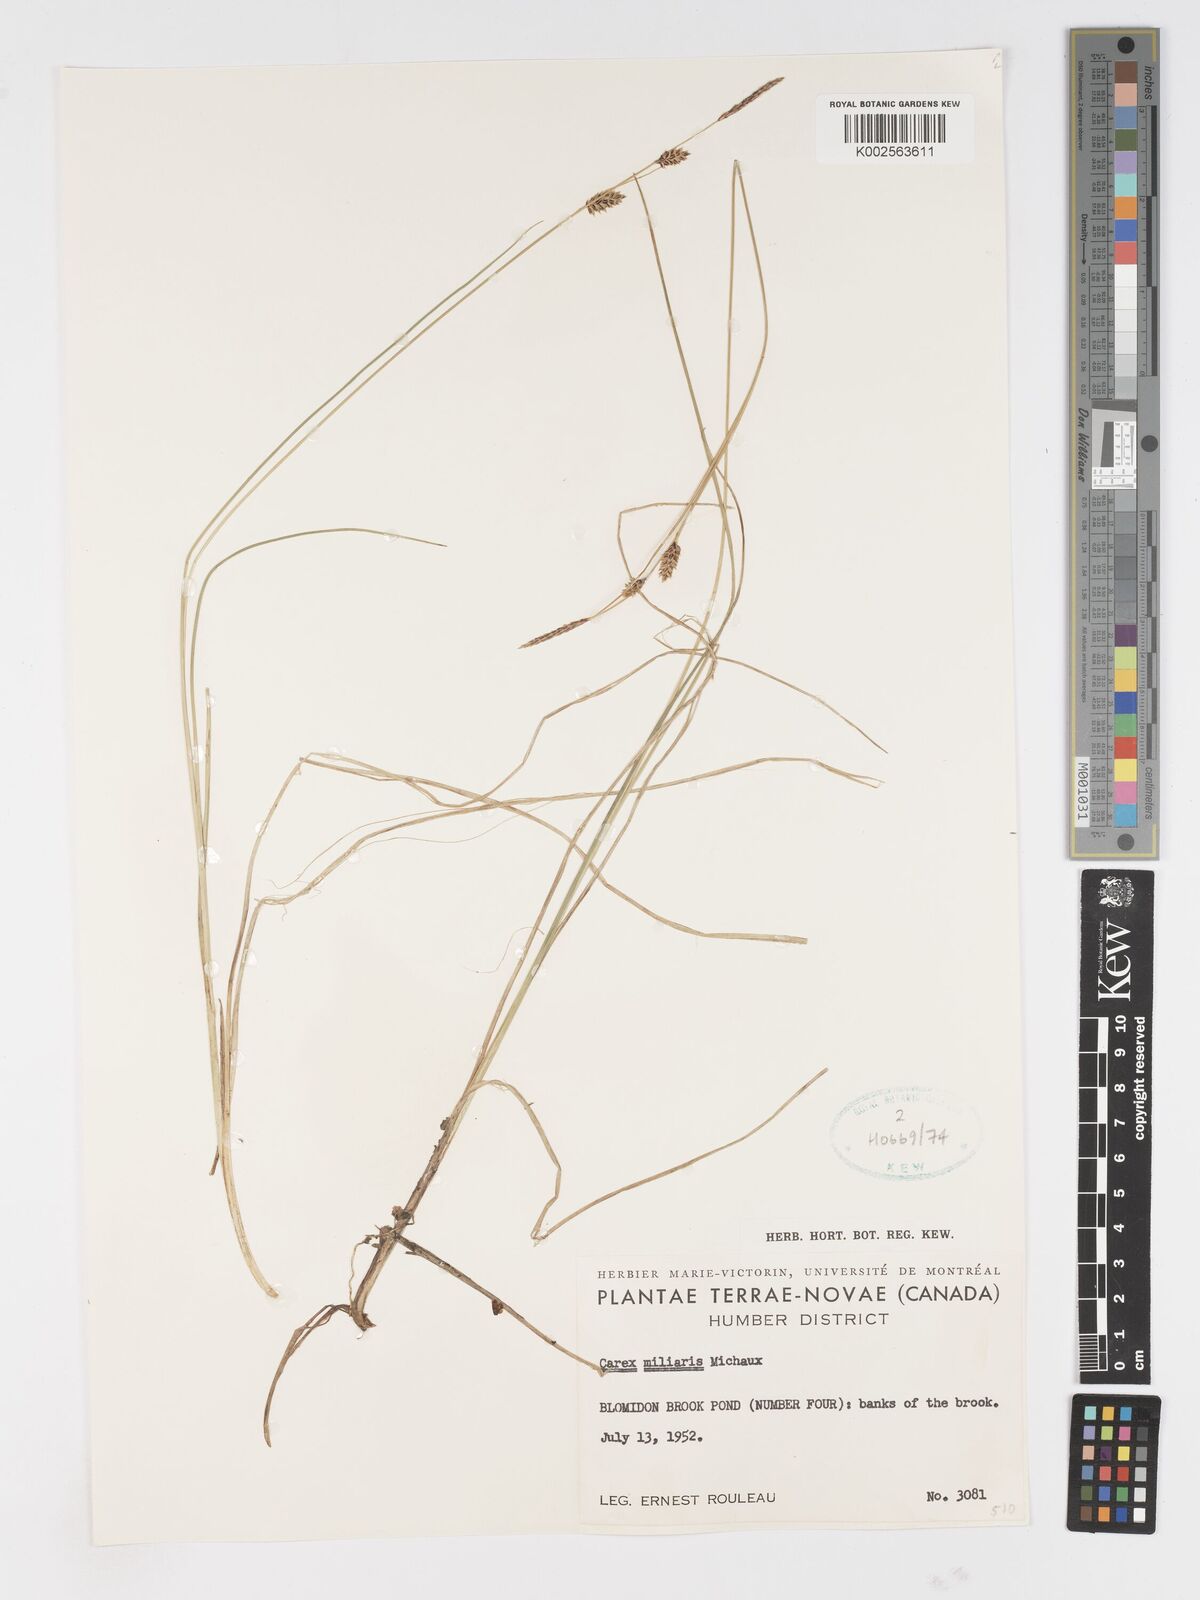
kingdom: Plantae
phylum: Tracheophyta
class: Liliopsida
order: Poales
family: Cyperaceae
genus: Carex
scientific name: Carex miliaris
